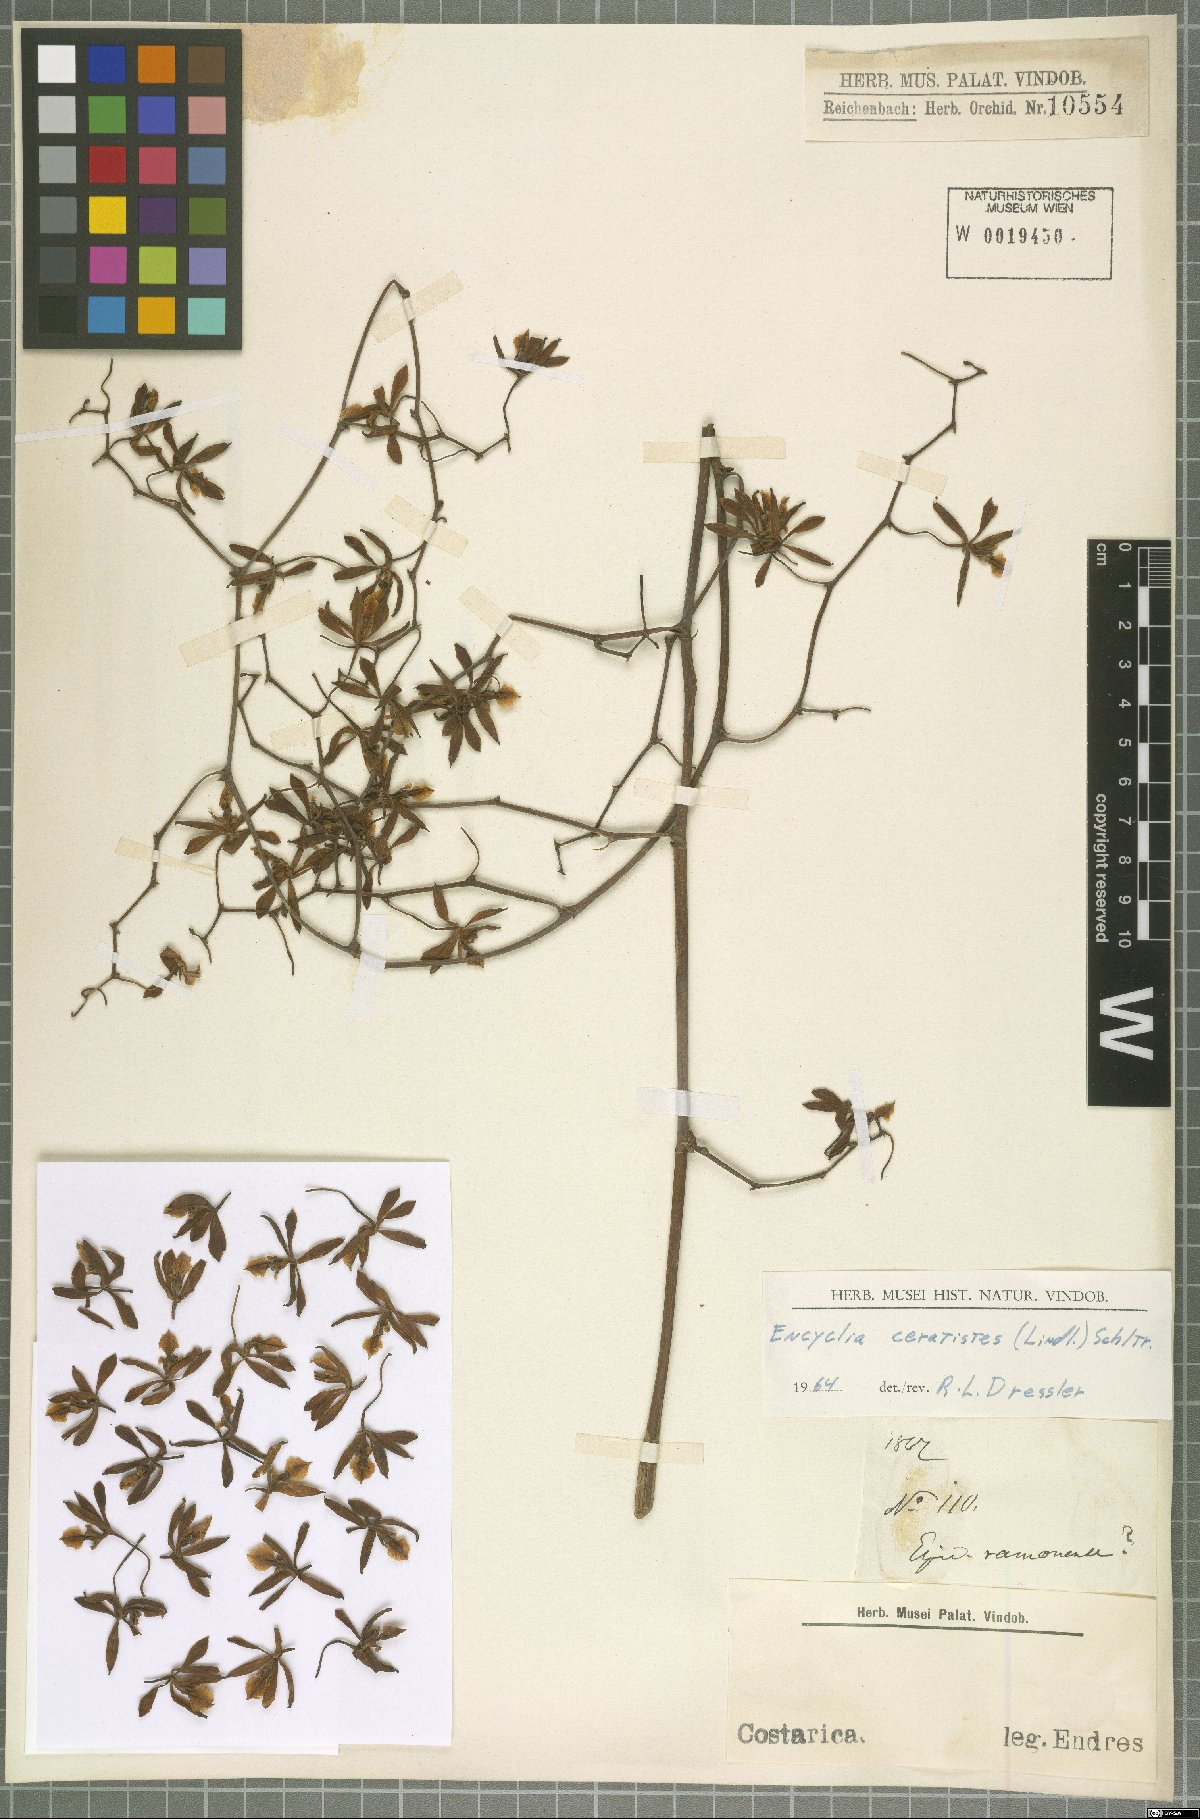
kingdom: Plantae
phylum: Tracheophyta
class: Liliopsida
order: Asparagales
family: Orchidaceae
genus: Encyclia
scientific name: Encyclia ceratistes
